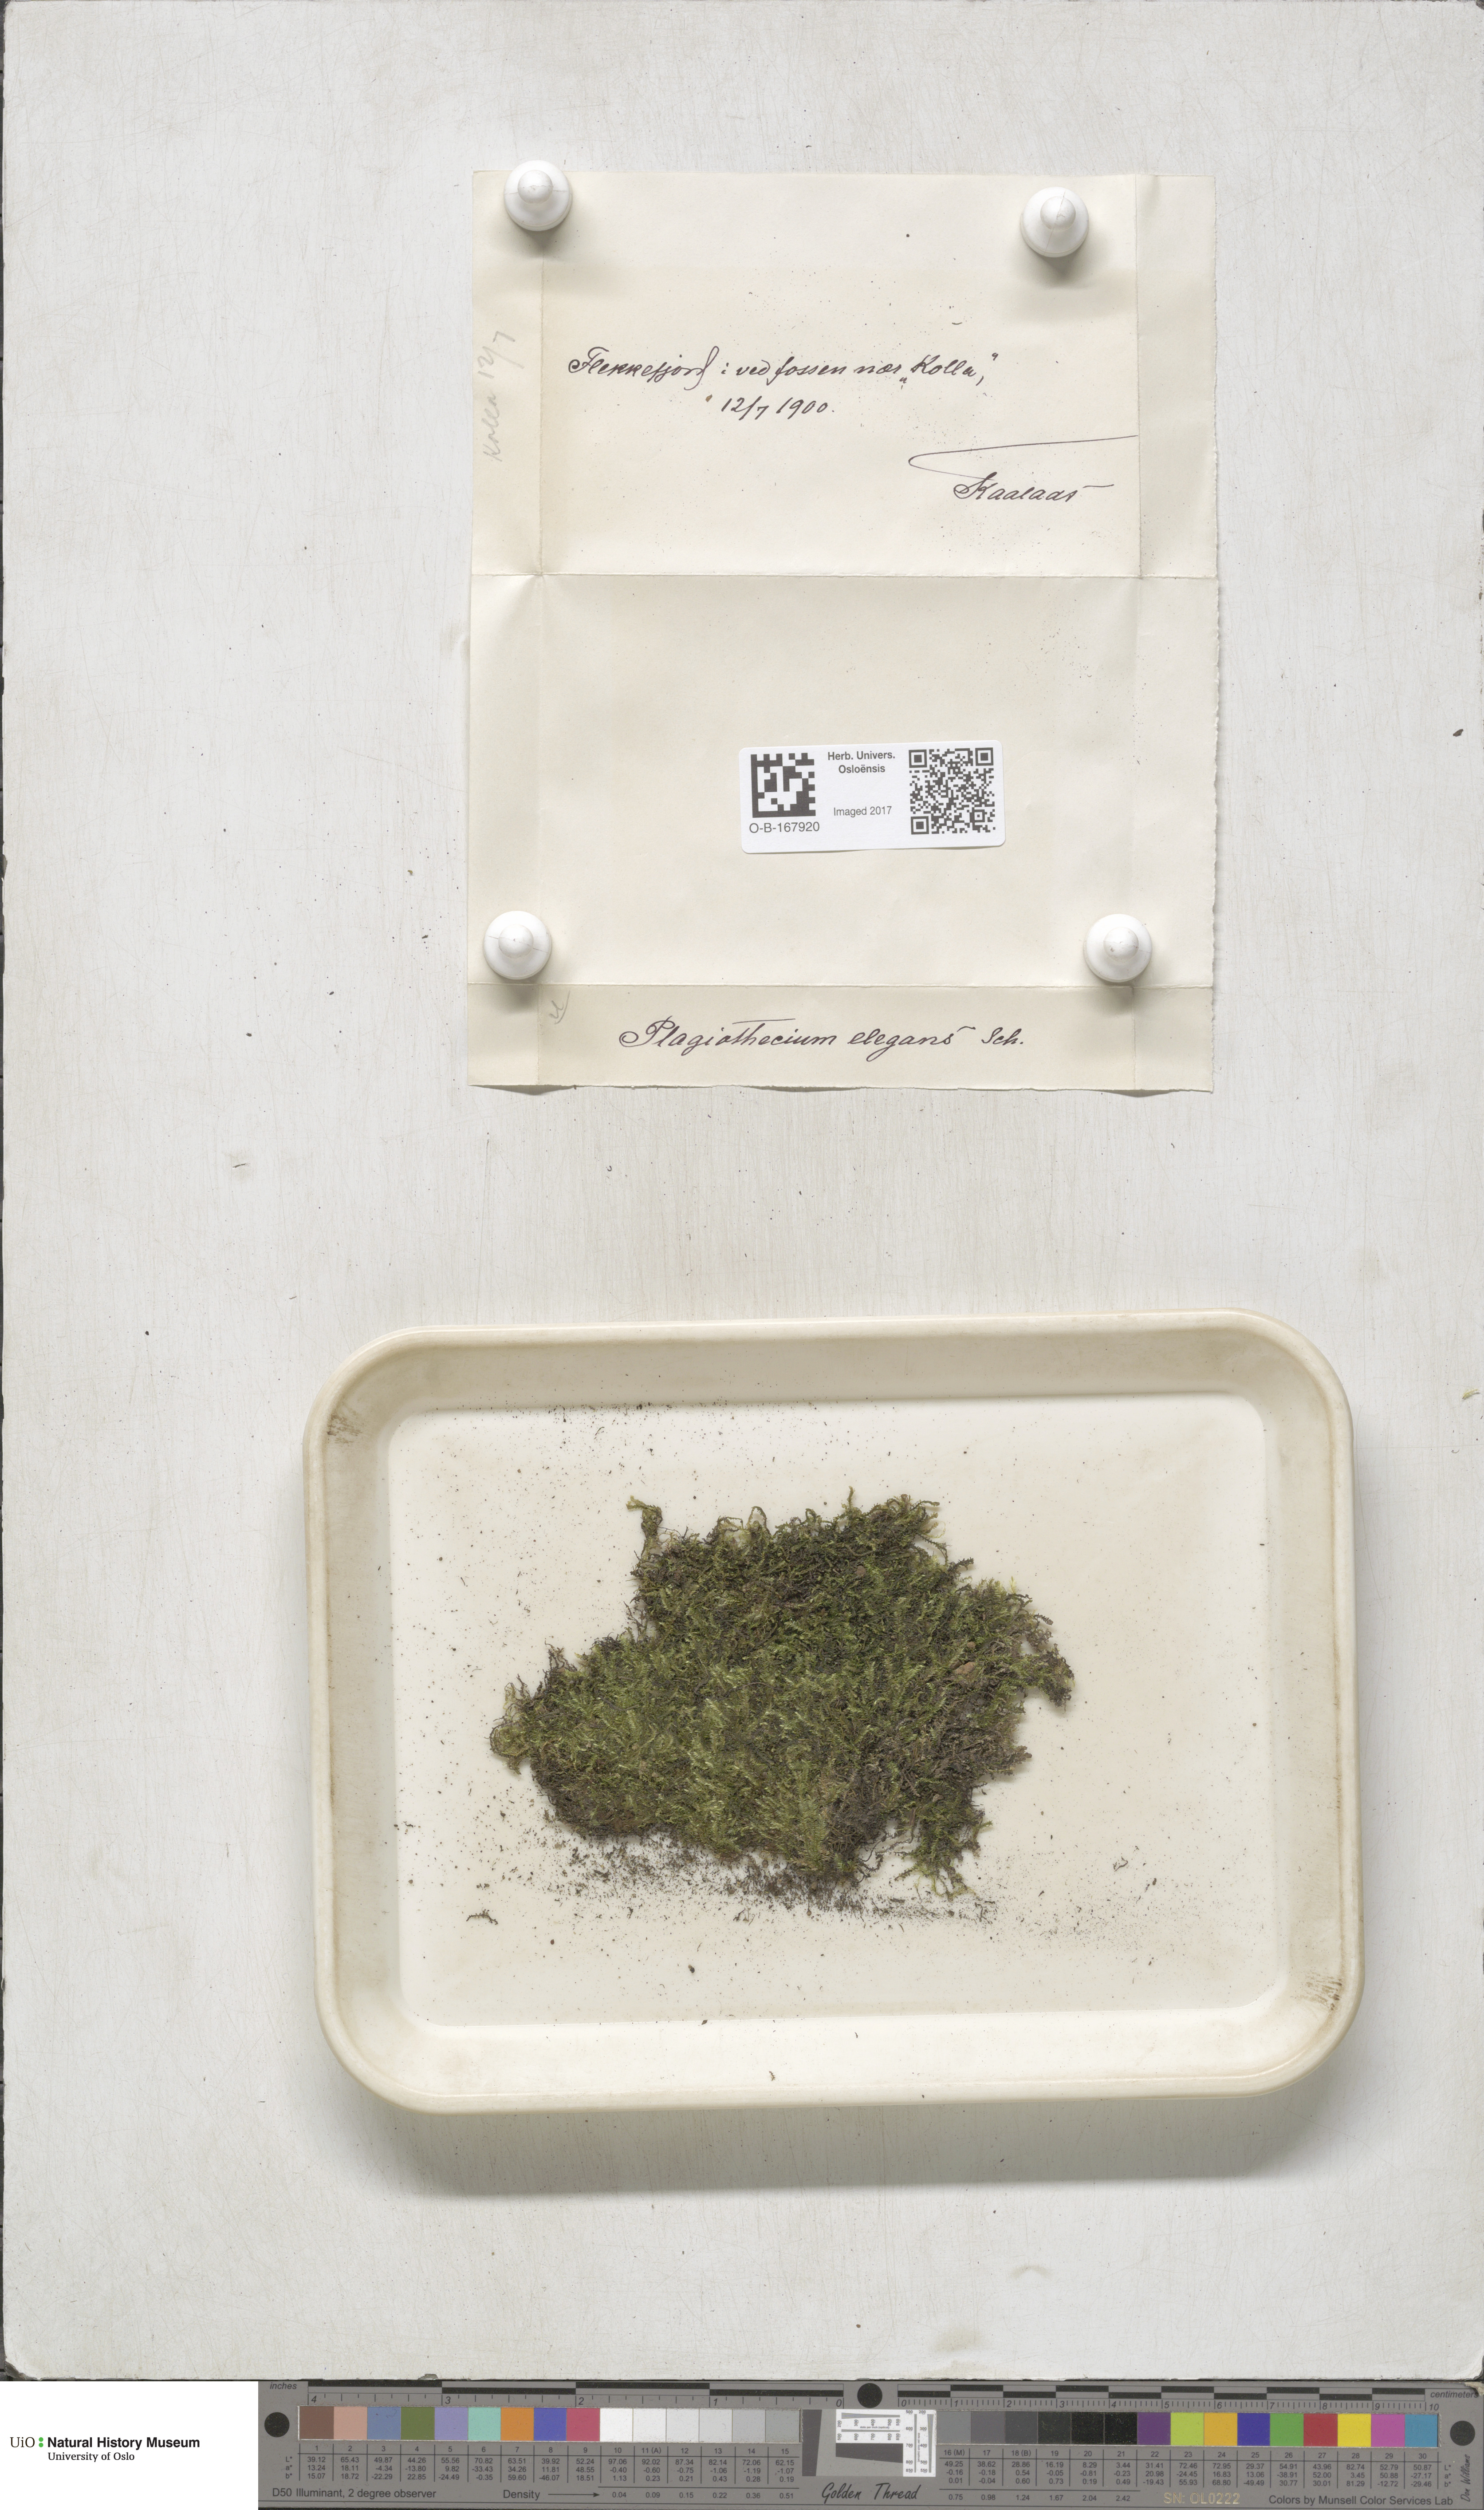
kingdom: Plantae
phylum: Bryophyta
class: Bryopsida
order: Hypnales
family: Plagiotheciaceae
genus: Pseudotaxiphyllum
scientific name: Pseudotaxiphyllum elegans
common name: Elegant silk moss
